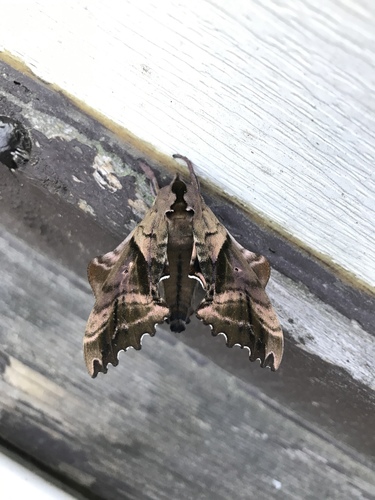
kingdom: Animalia
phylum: Arthropoda
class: Insecta
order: Lepidoptera
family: Sphingidae
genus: Paonias
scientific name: Paonias excaecata
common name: Blind-eyed sphinx
